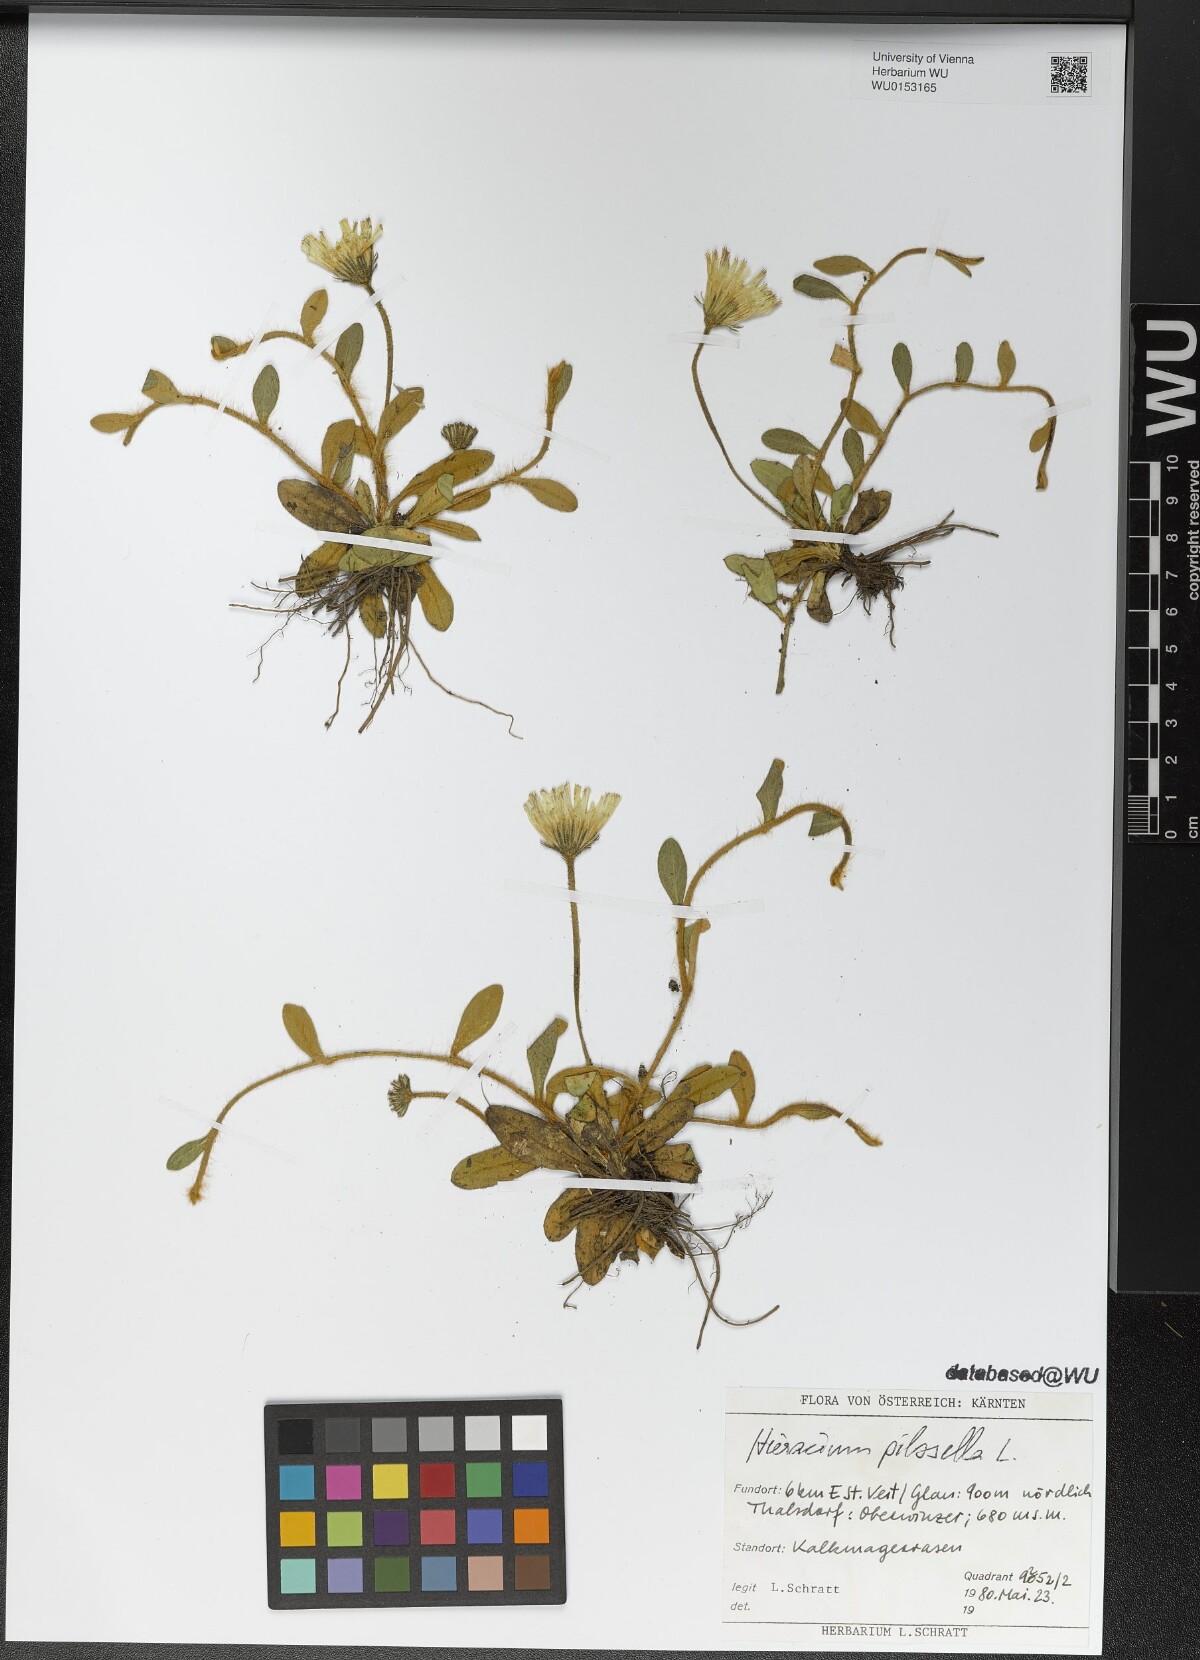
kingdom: Plantae
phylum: Tracheophyta
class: Magnoliopsida
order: Asterales
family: Asteraceae
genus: Pilosella
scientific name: Pilosella officinarum
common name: Mouse-ear hawkweed
